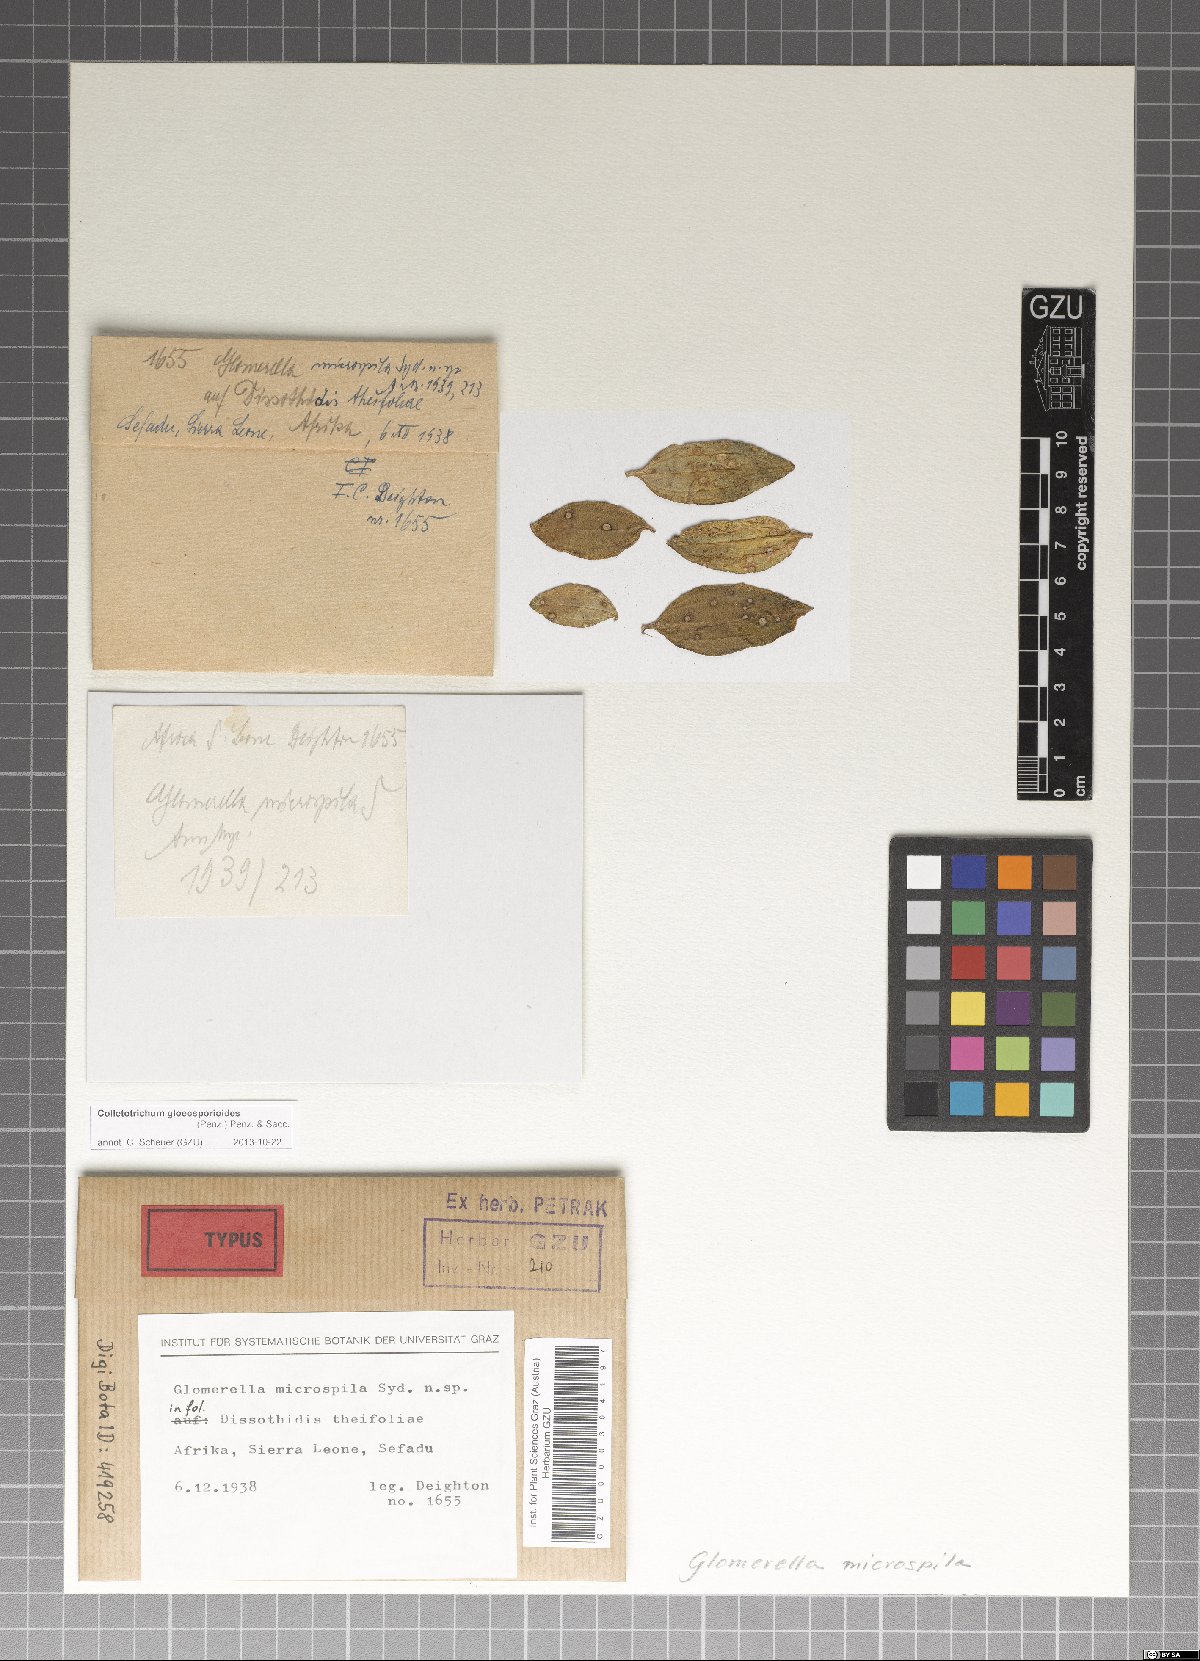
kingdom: Fungi
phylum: Ascomycota
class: Sordariomycetes
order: Glomerellales
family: Glomerellaceae
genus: Colletotrichum
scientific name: Colletotrichum gloeosporioides
